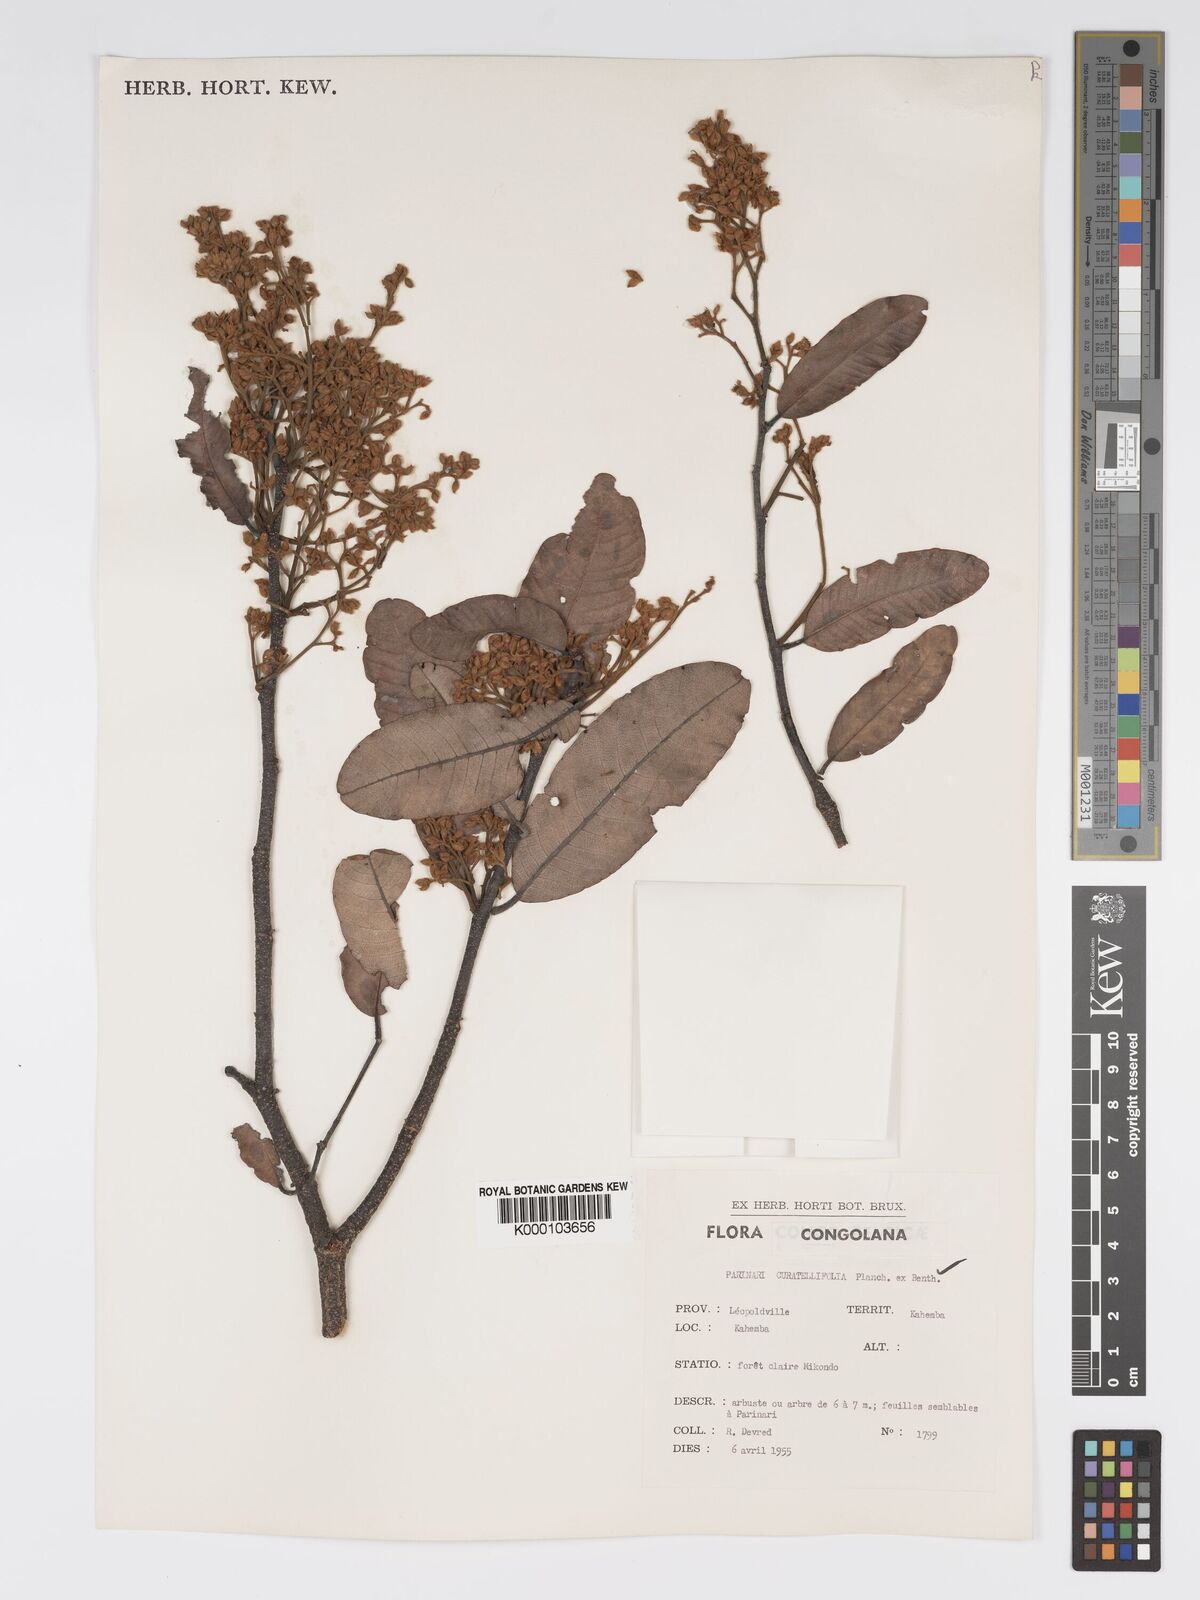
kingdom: Plantae
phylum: Tracheophyta
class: Magnoliopsida
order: Malpighiales
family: Chrysobalanaceae
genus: Parinari
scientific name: Parinari curatellifolia
